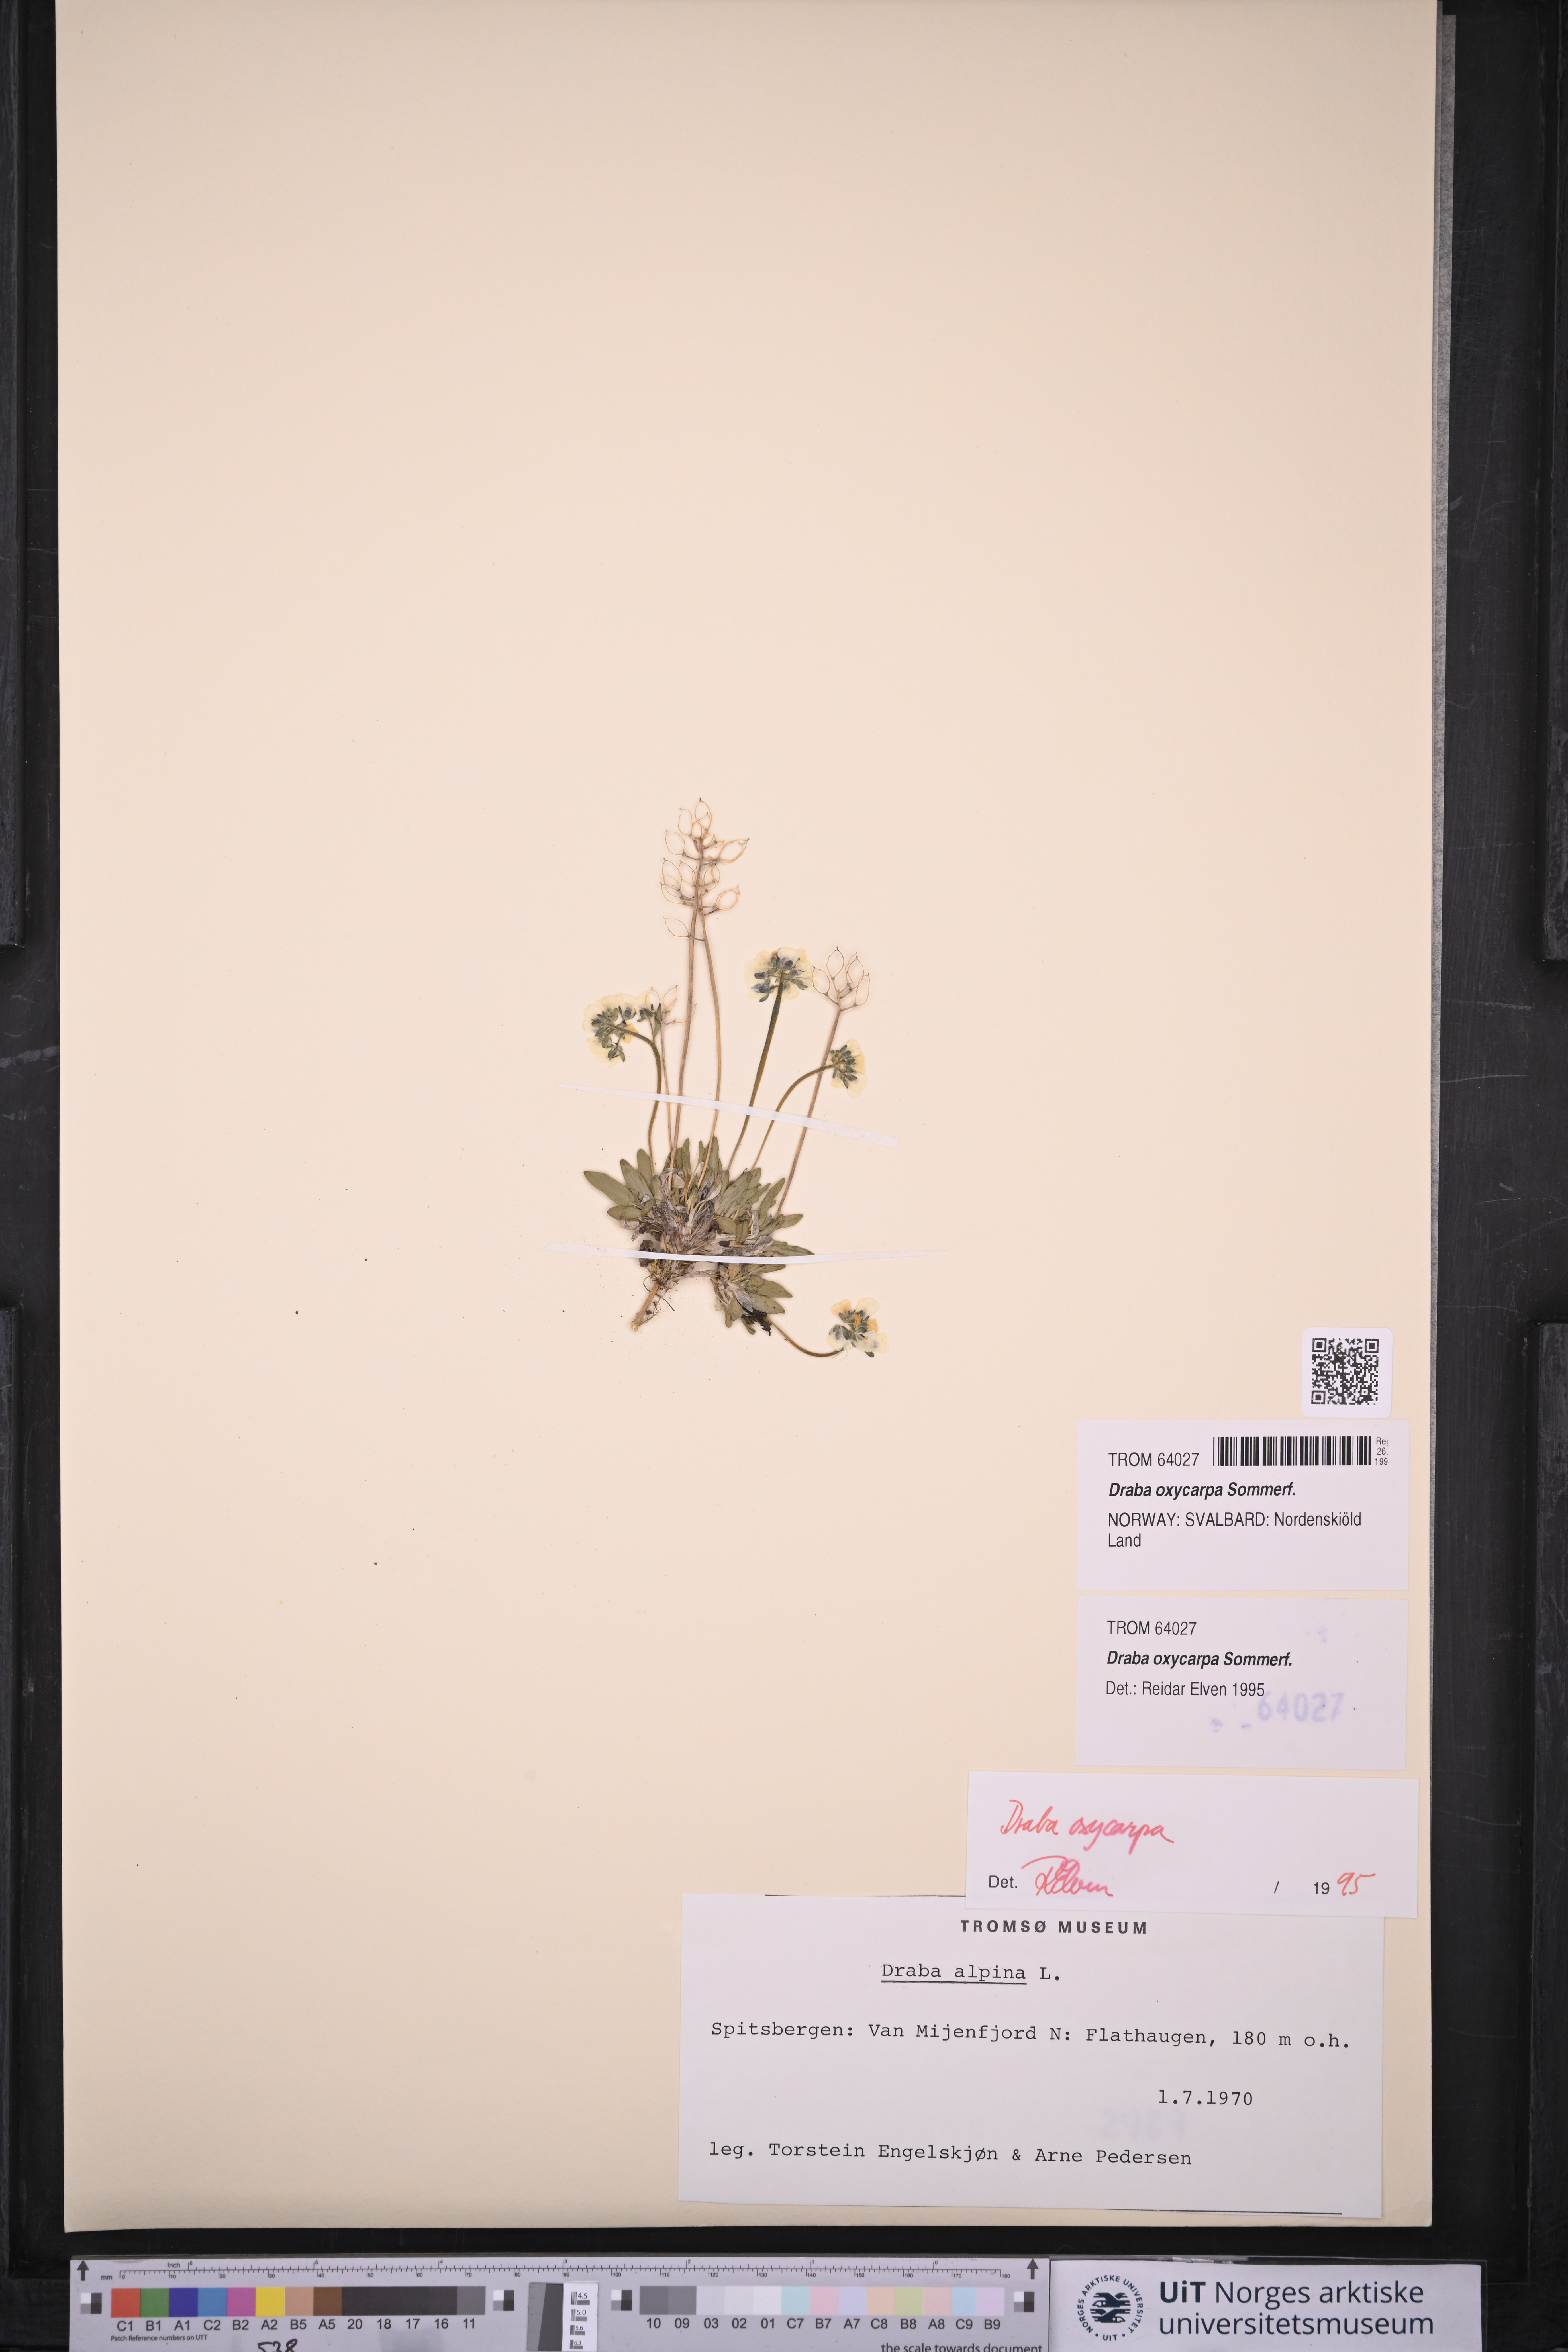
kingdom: Plantae
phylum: Tracheophyta
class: Magnoliopsida
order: Brassicales
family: Brassicaceae
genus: Draba
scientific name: Draba oxycarpa
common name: Sharp-fruited whitlow-grass
